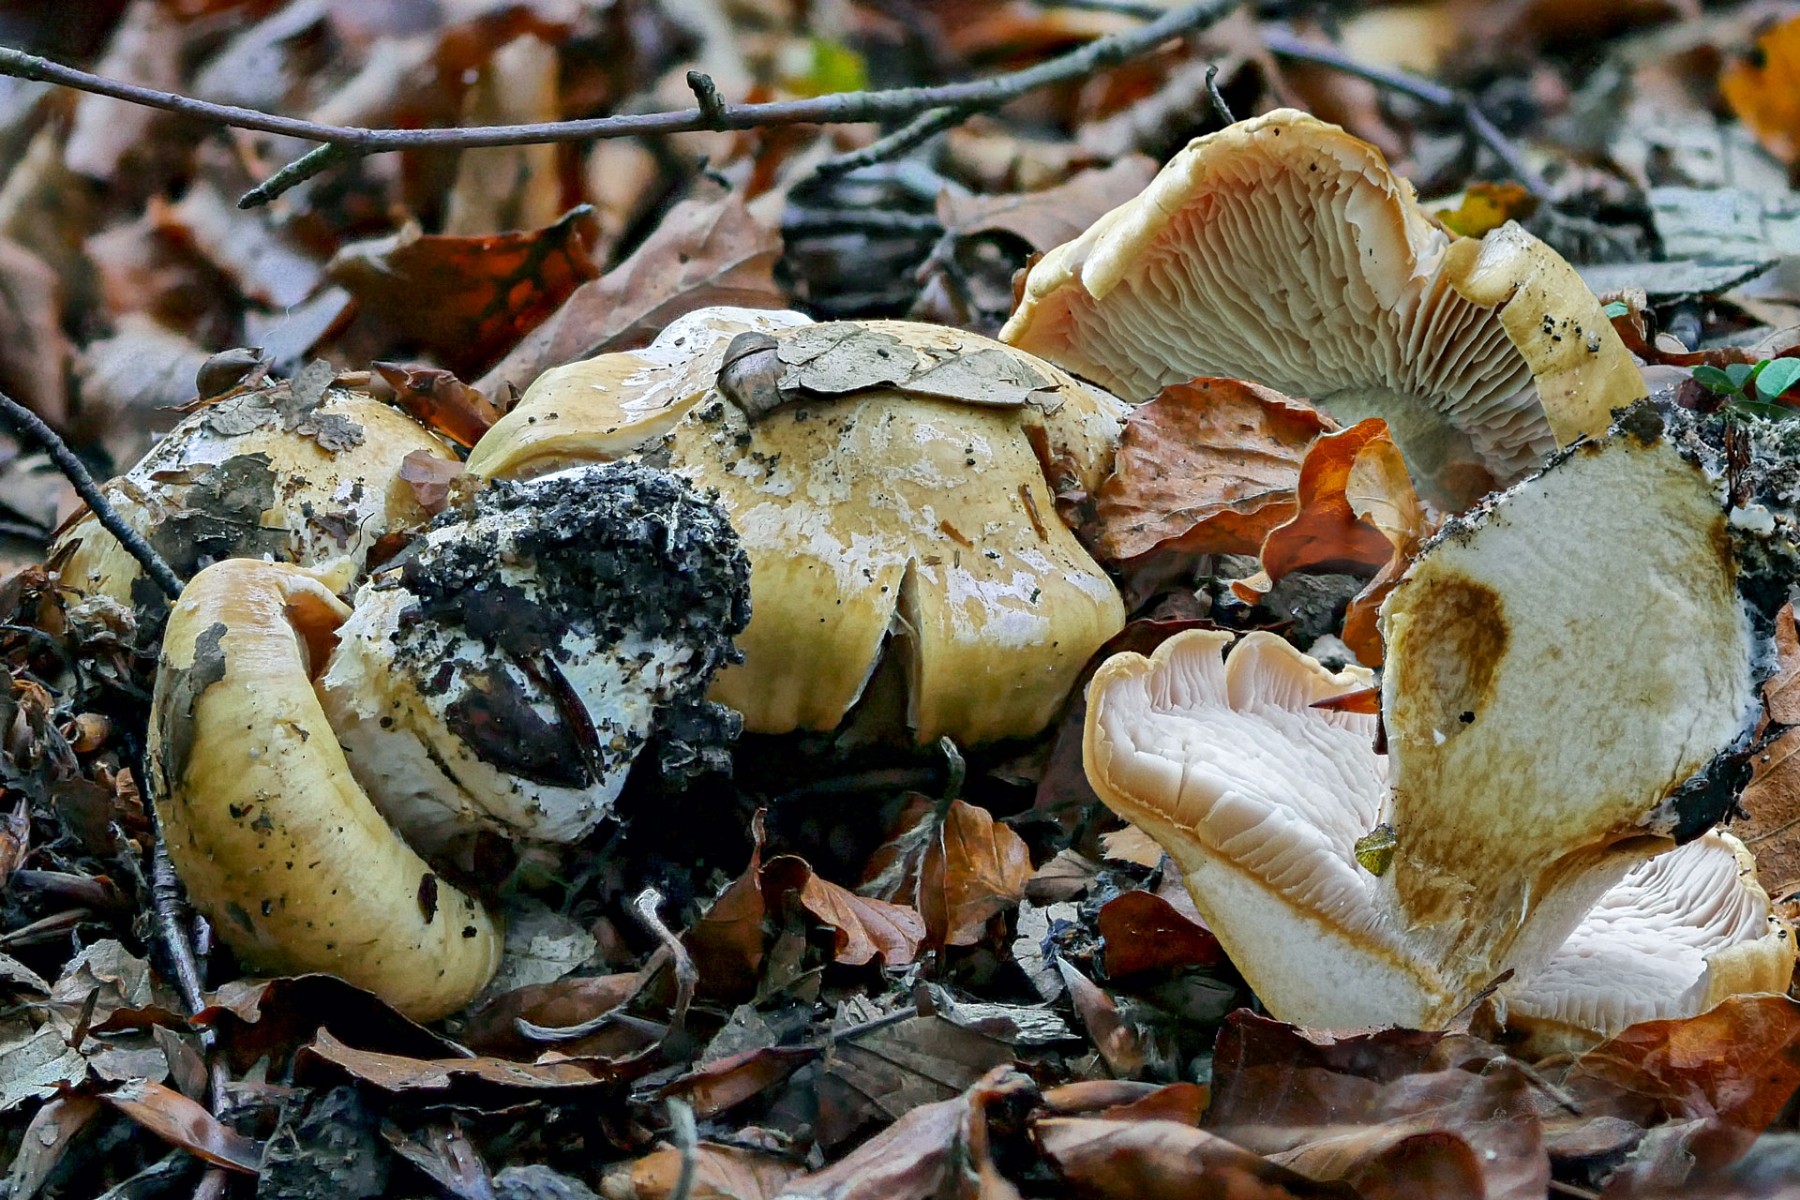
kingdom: Fungi
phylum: Basidiomycota
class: Agaricomycetes
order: Agaricales
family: Cortinariaceae
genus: Phlegmacium
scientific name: Phlegmacium xantho-ochraceum
